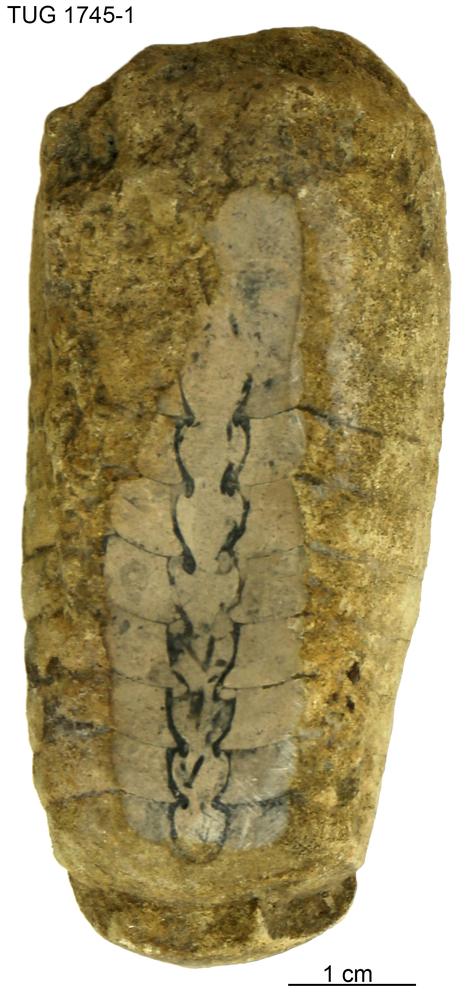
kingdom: Animalia
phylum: Mollusca
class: Cephalopoda
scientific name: Cephalopoda
